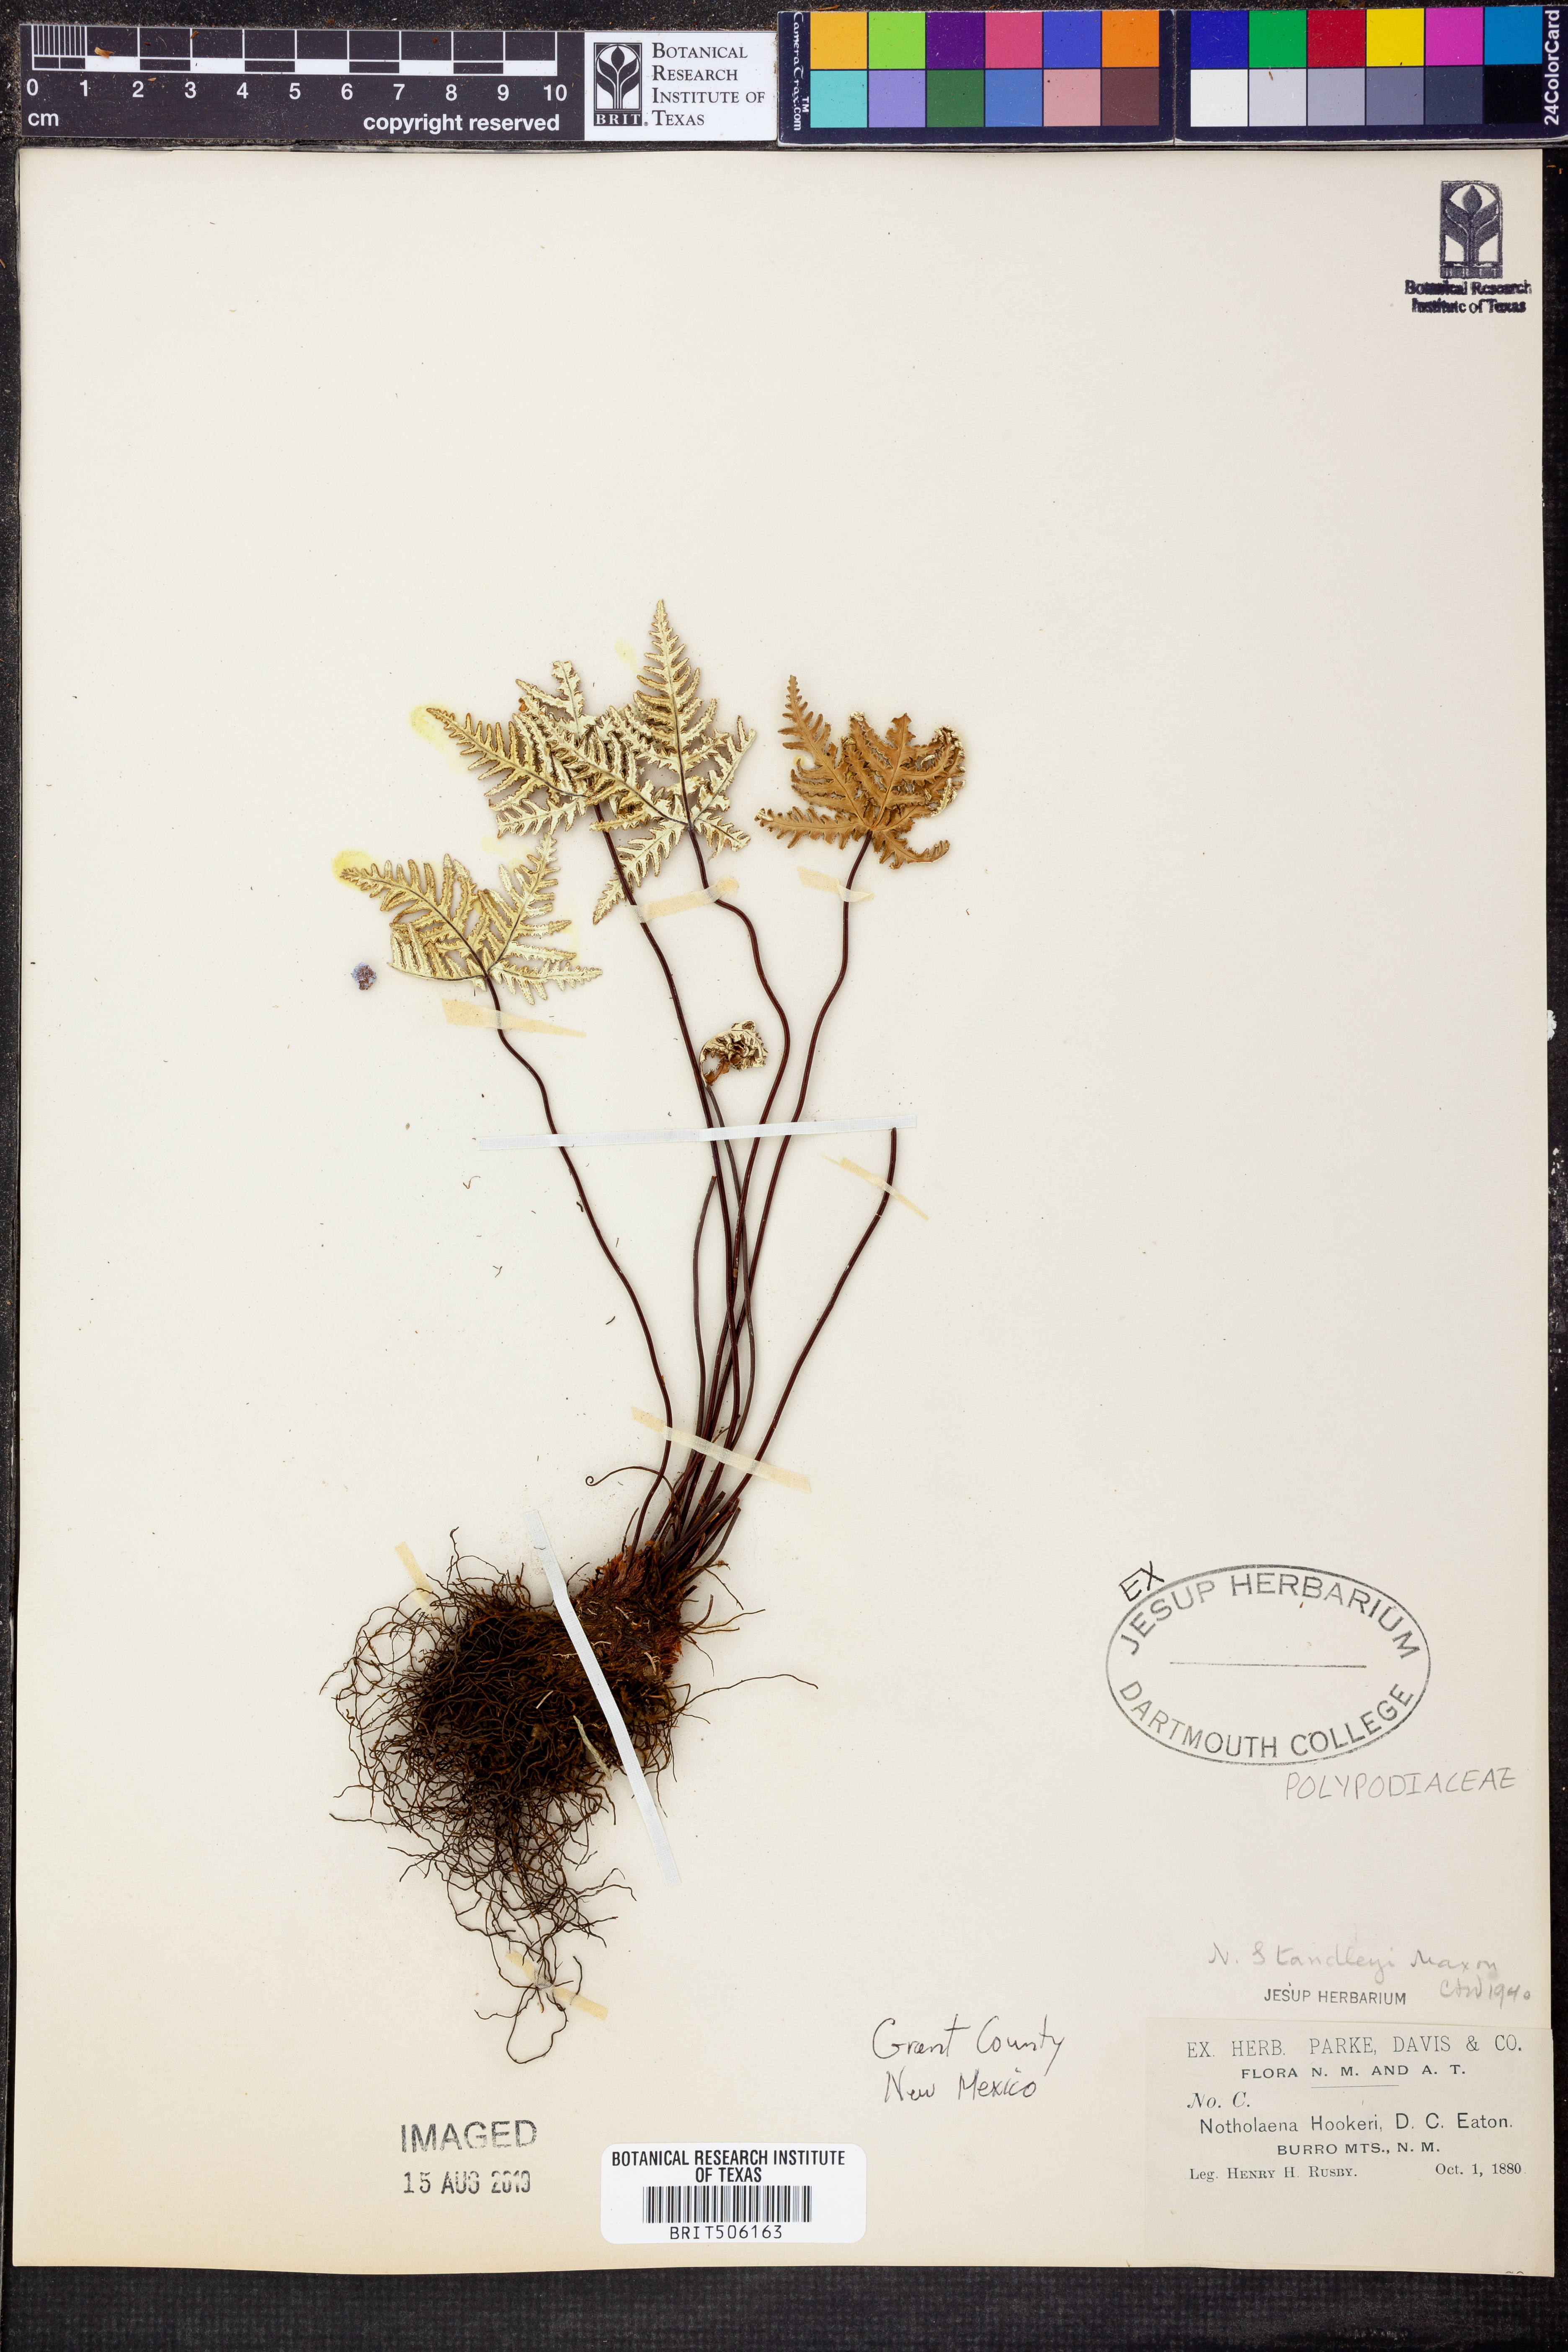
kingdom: Plantae
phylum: Tracheophyta
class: Polypodiopsida
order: Polypodiales
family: Pteridaceae
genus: Notholaena
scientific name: Notholaena standleyi
